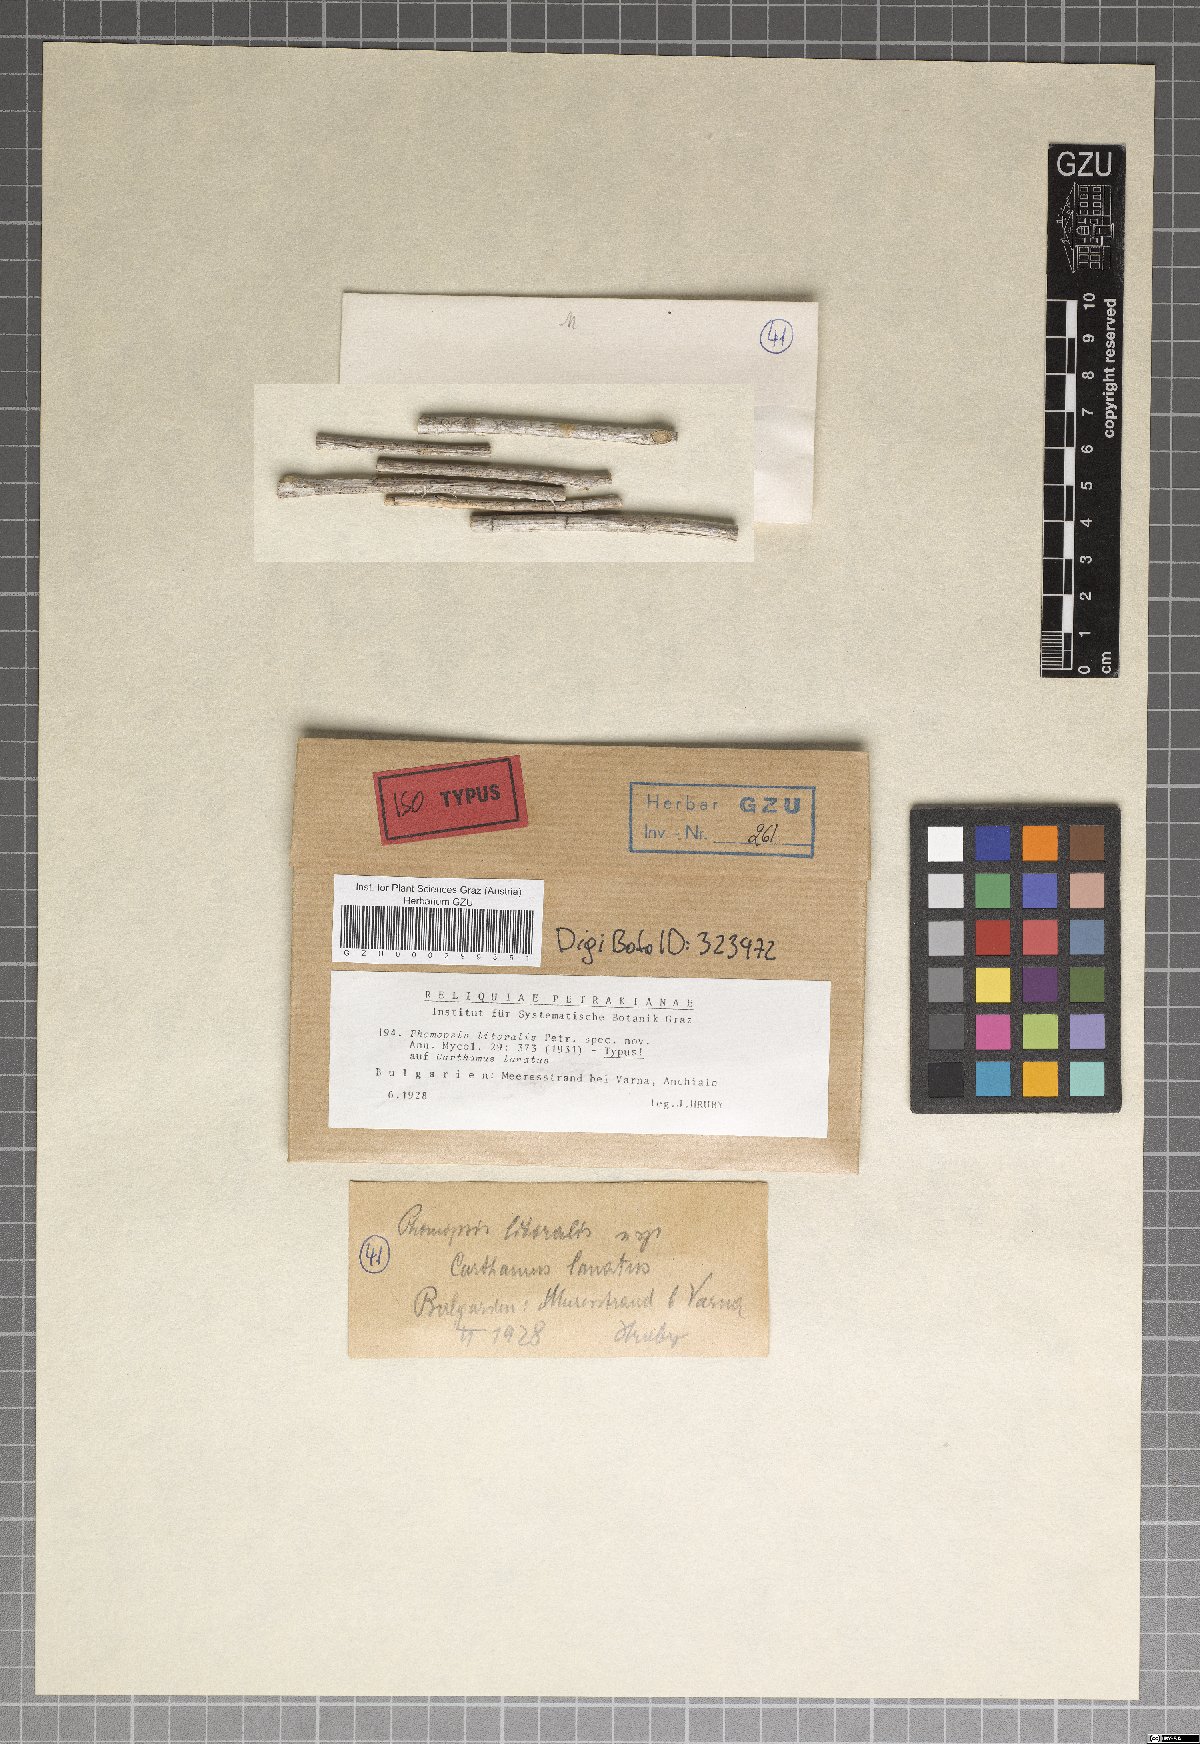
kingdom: Fungi
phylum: Ascomycota
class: Sordariomycetes
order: Diaporthales
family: Diaporthaceae
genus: Phomopsis
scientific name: Phomopsis litoralis
